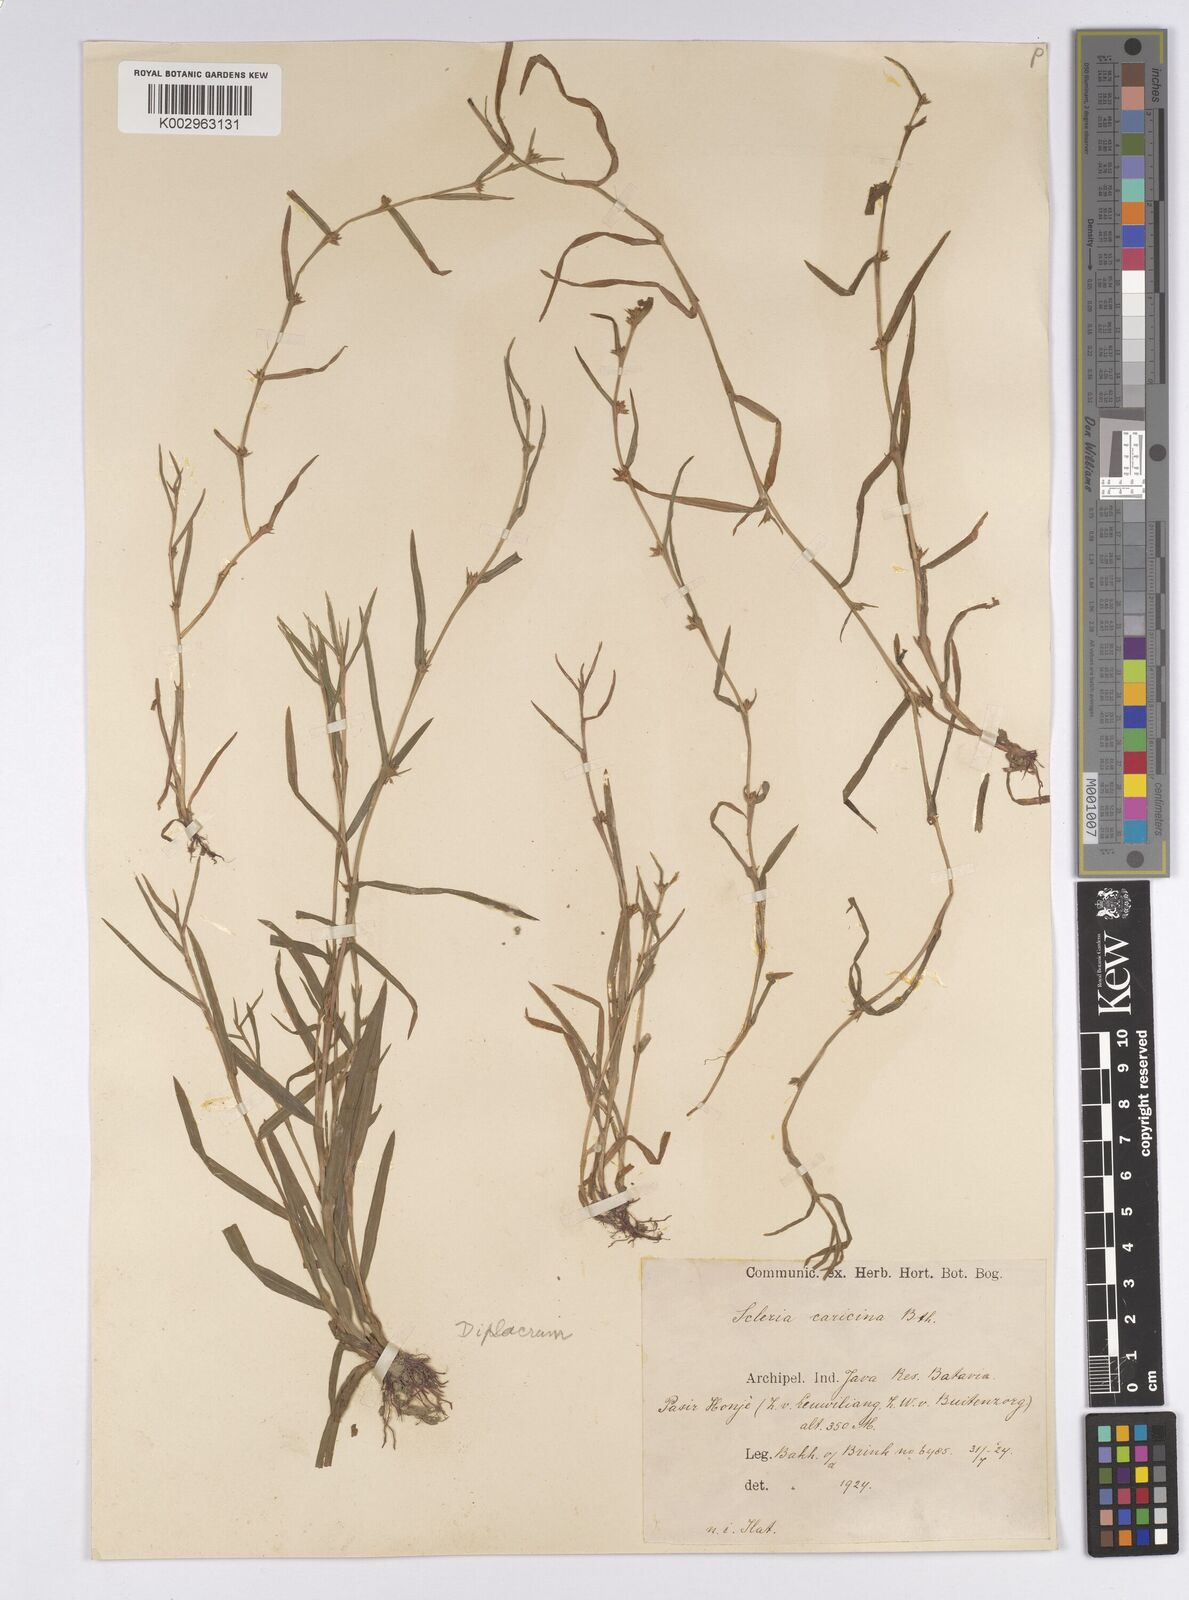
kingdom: Plantae
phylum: Tracheophyta
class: Liliopsida
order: Poales
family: Cyperaceae
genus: Diplacrum
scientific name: Diplacrum caricinum
